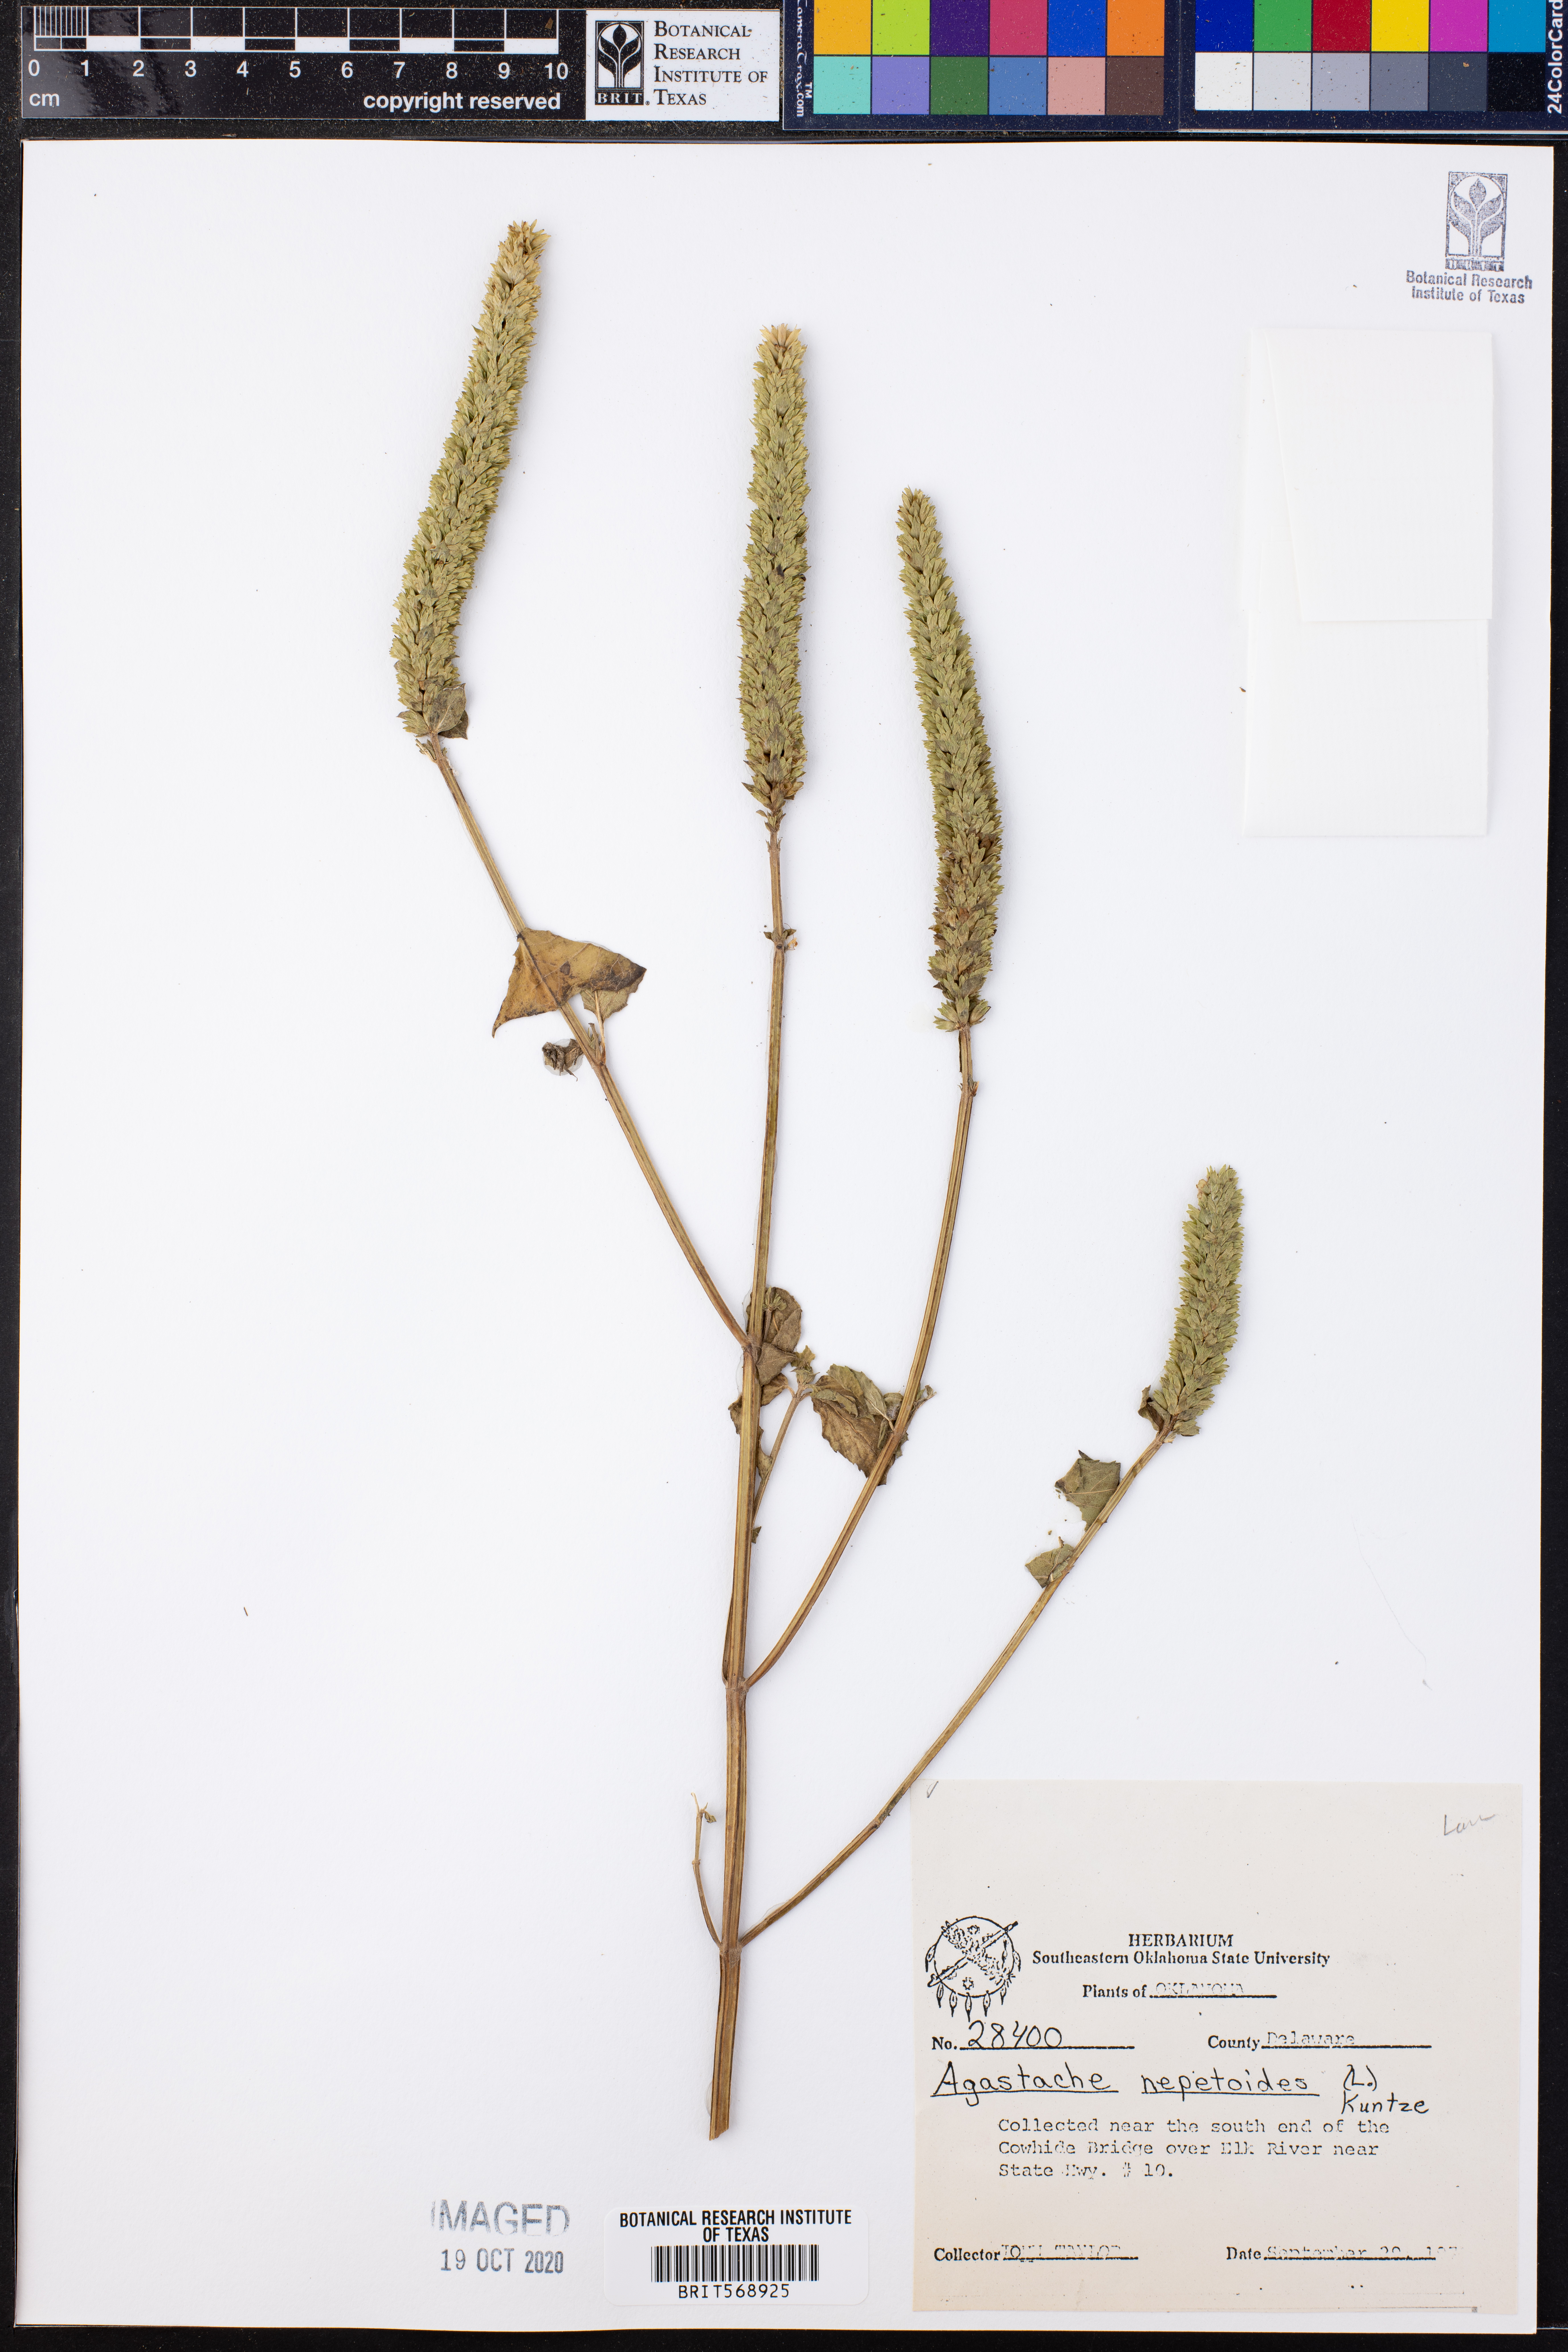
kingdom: Plantae
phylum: Tracheophyta
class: Magnoliopsida
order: Lamiales
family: Lamiaceae
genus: Agastache
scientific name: Agastache nepetoides
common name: Catnip giant hyssop
